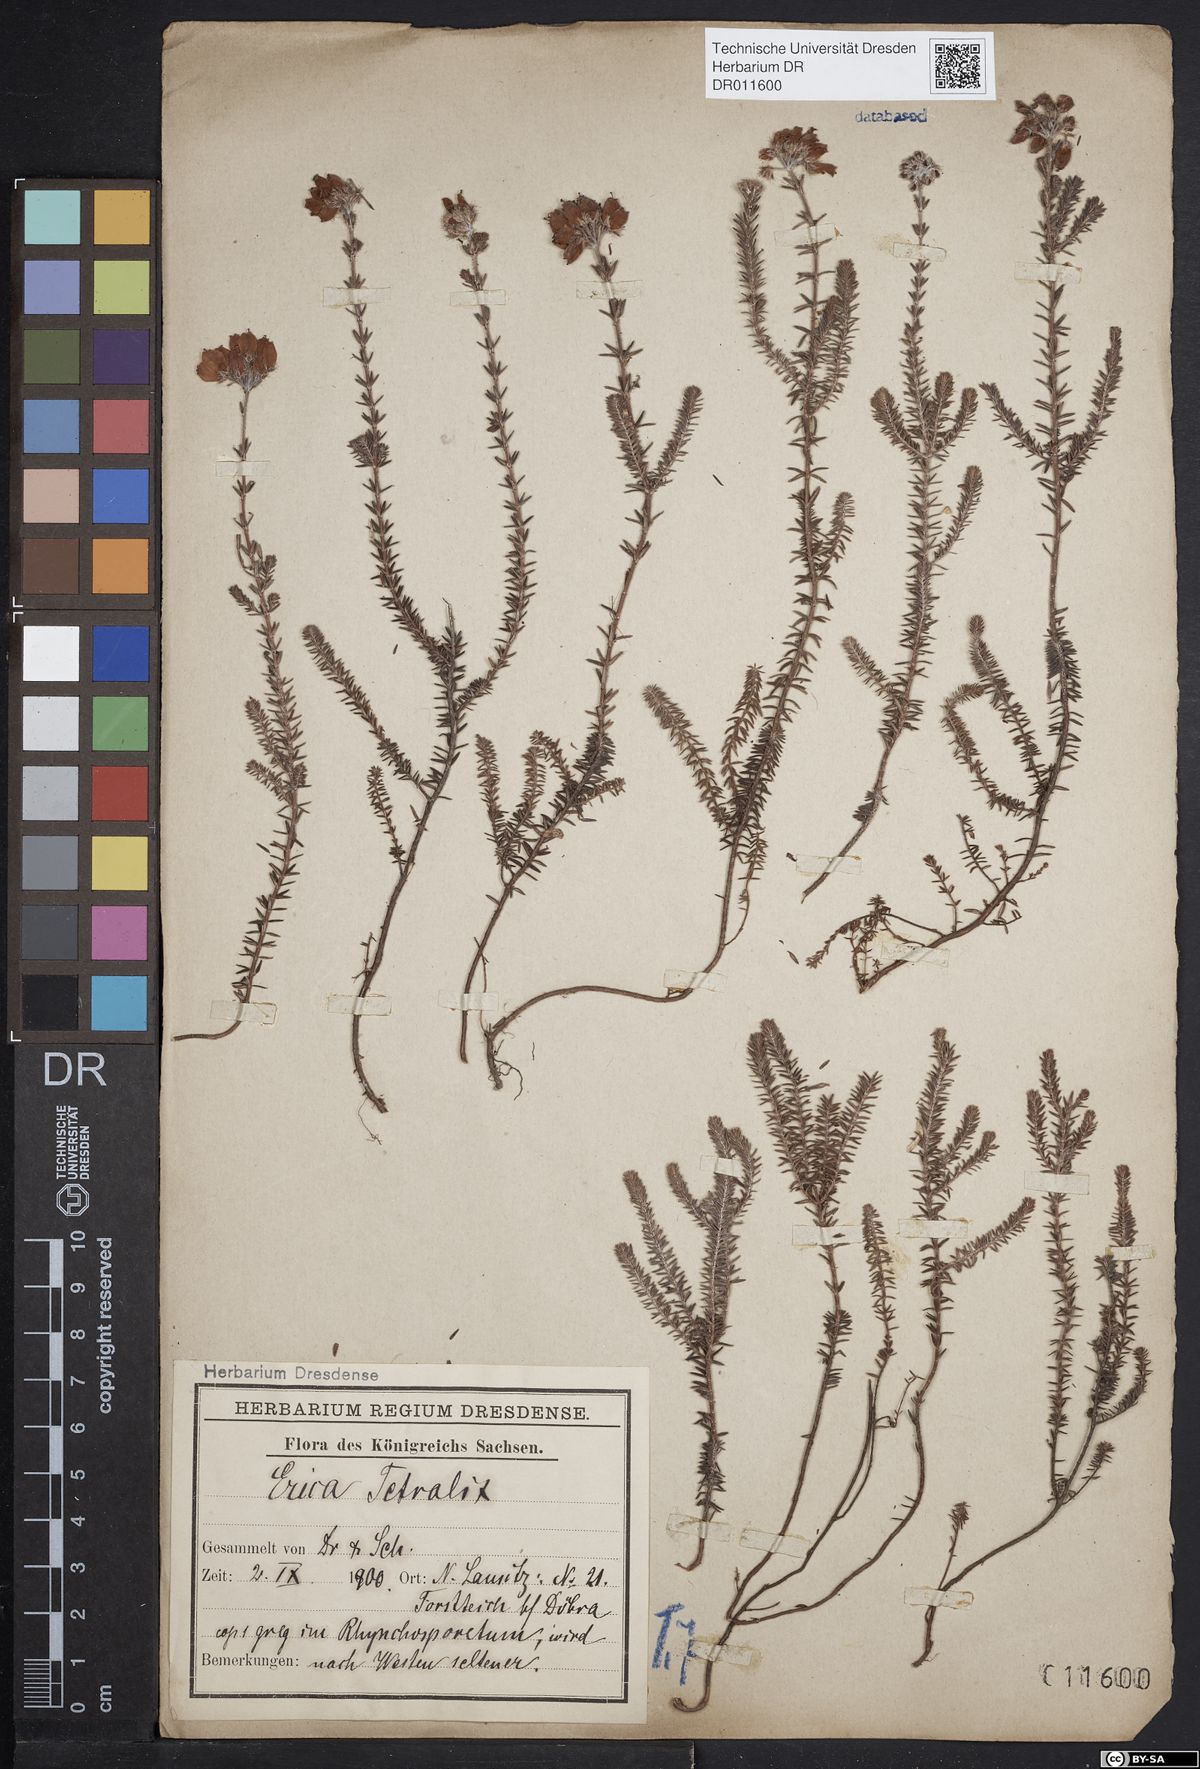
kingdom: Plantae
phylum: Tracheophyta
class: Magnoliopsida
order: Ericales
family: Ericaceae
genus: Erica
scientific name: Erica tetralix
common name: Cross-leaved heath
